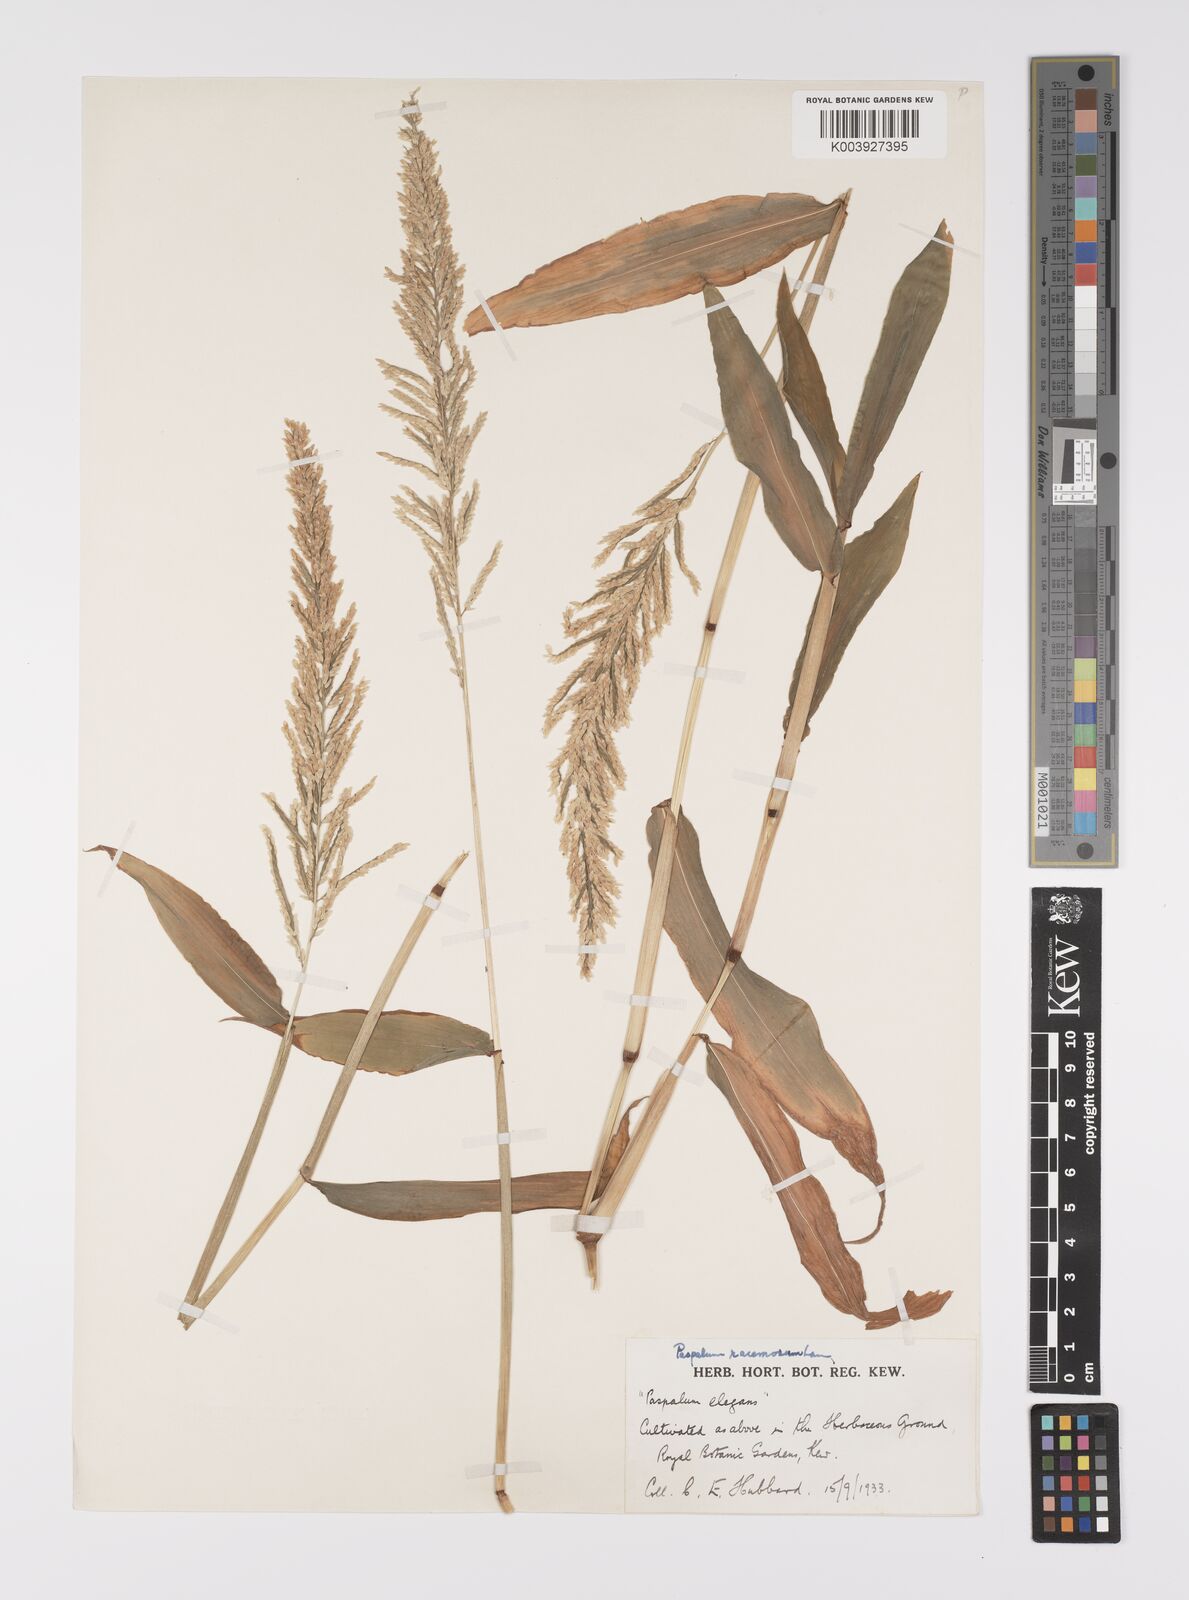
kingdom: Plantae
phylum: Tracheophyta
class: Liliopsida
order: Poales
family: Poaceae
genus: Paspalum
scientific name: Paspalum racemosum
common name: Peruvian paspalum
